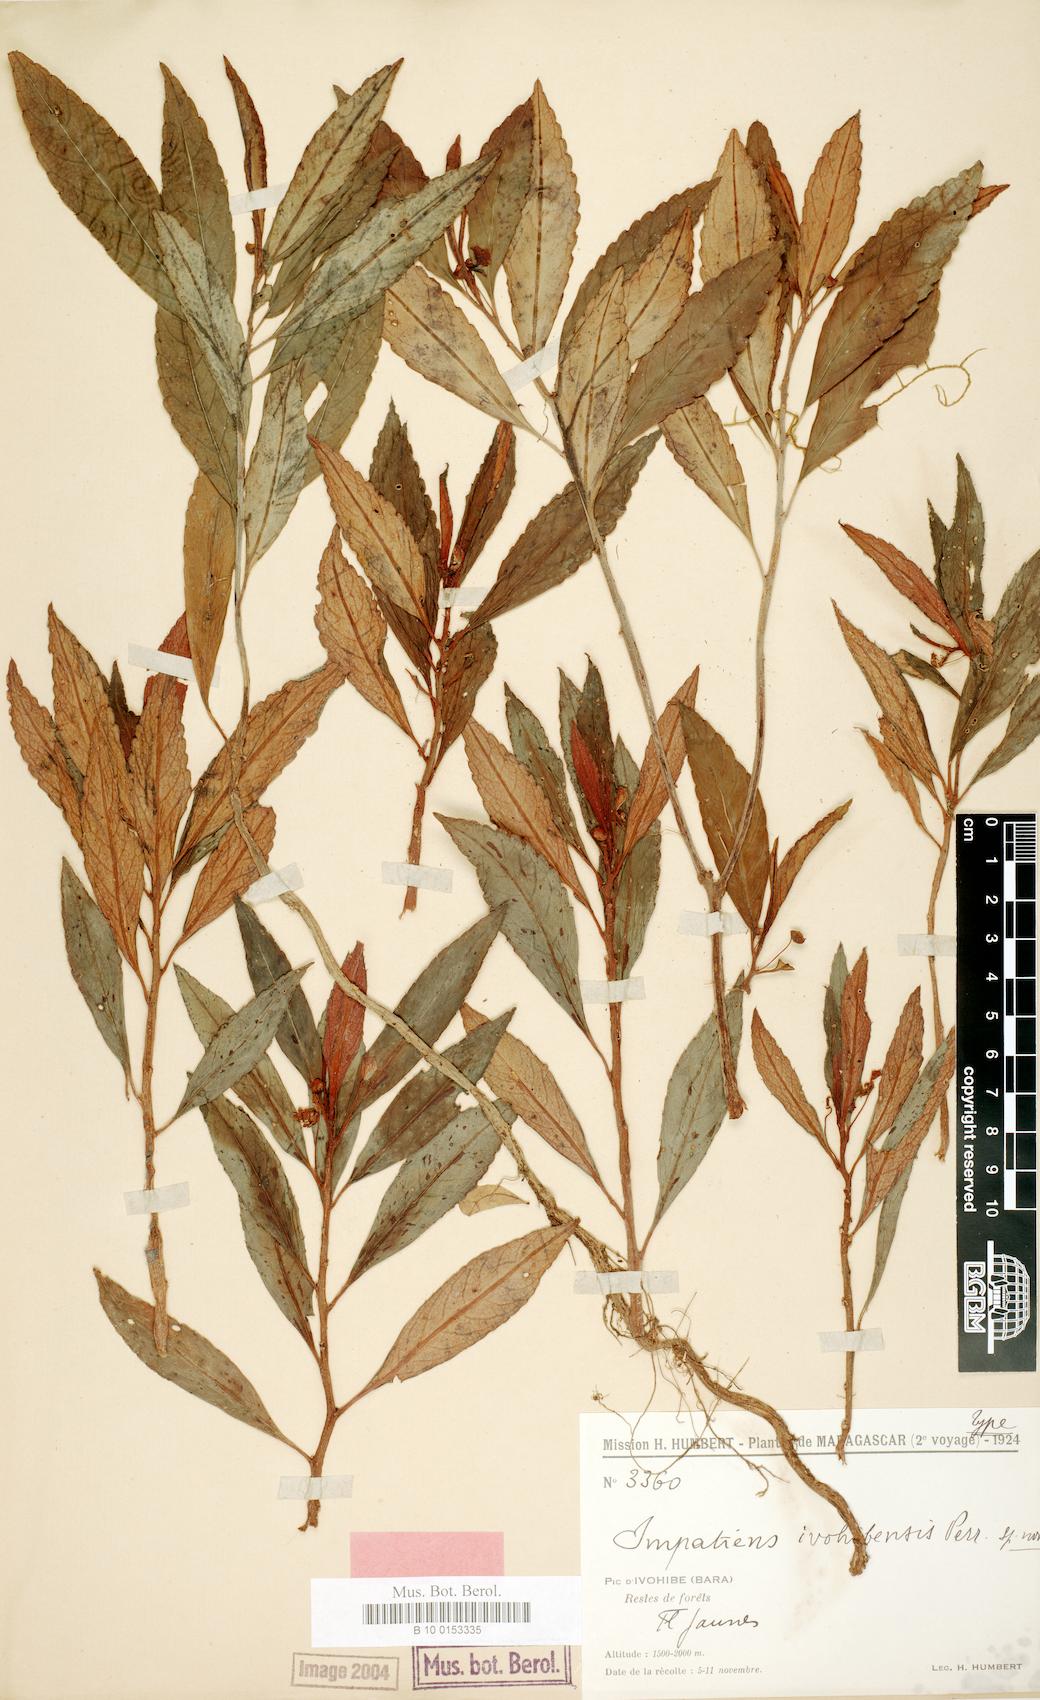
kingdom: Plantae
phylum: Tracheophyta
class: Magnoliopsida
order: Ericales
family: Balsaminaceae
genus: Impatiens
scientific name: Impatiens ivohibensis
